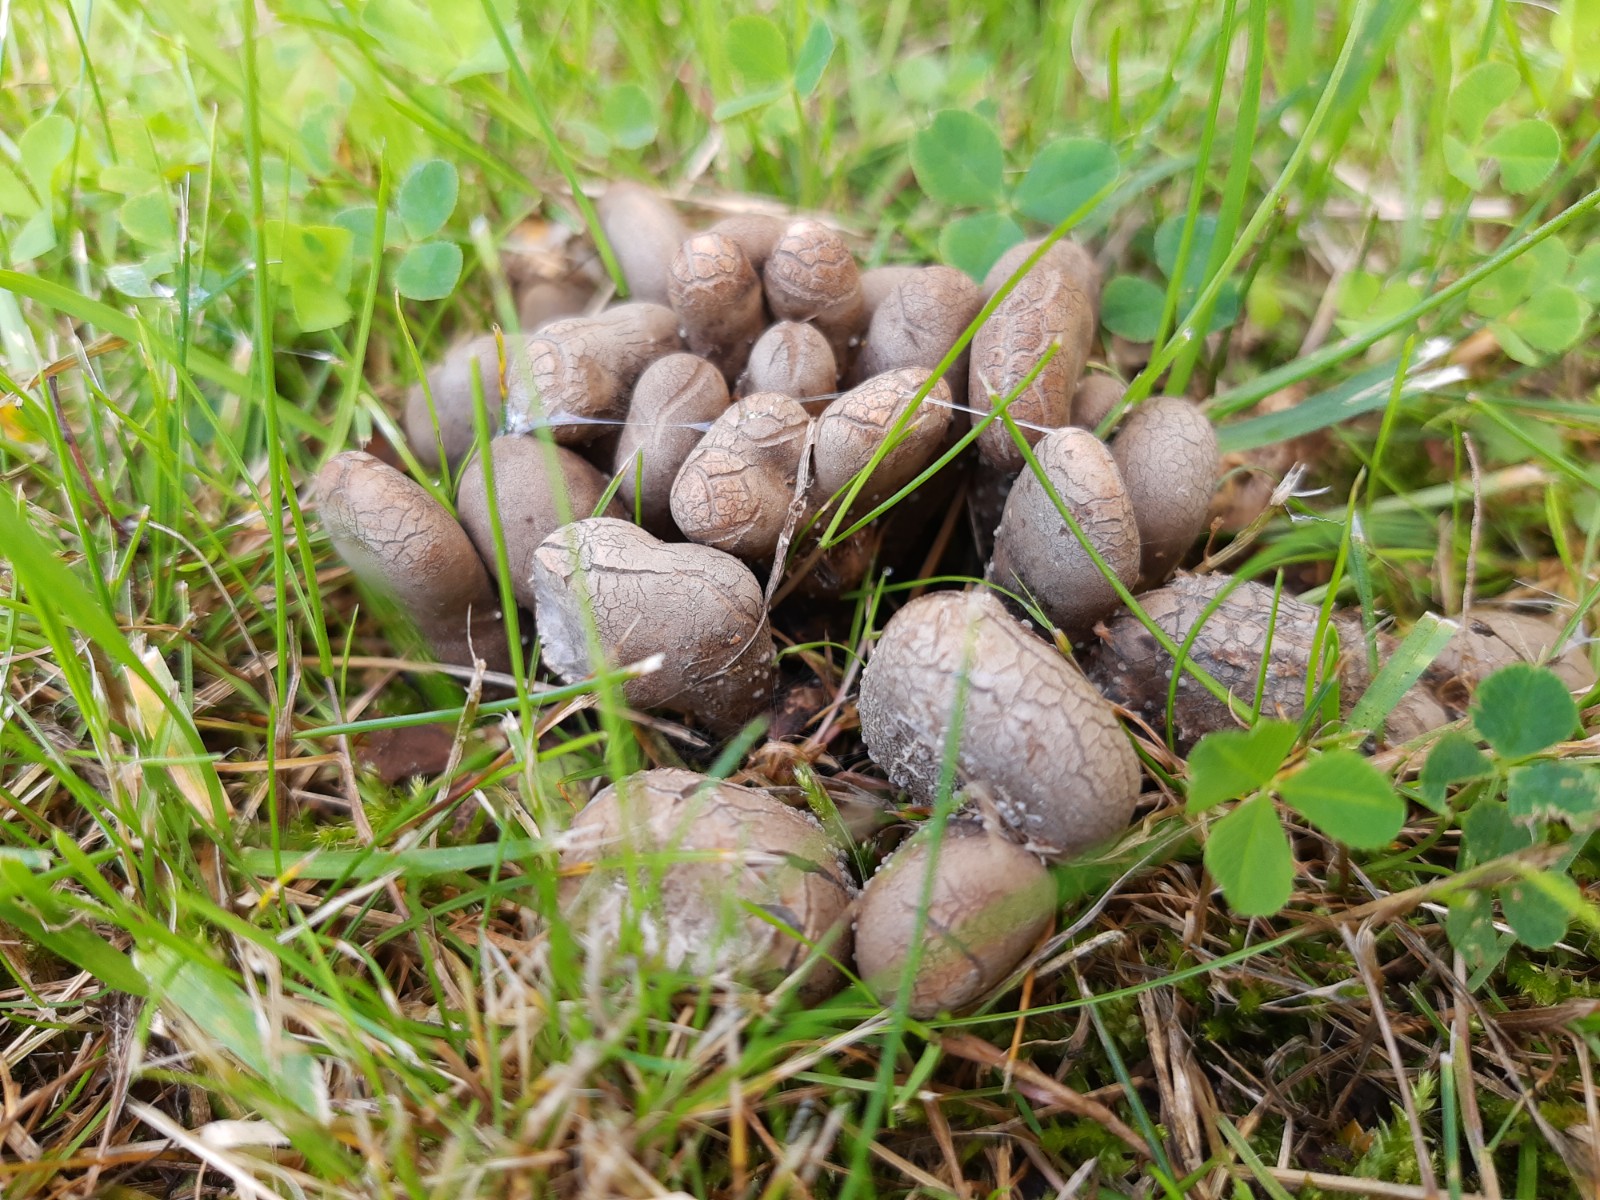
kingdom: Fungi
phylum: Ascomycota
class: Sordariomycetes
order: Xylariales
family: Xylariaceae
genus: Xylaria
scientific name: Xylaria polymorpha
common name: kølle-stødsvamp
